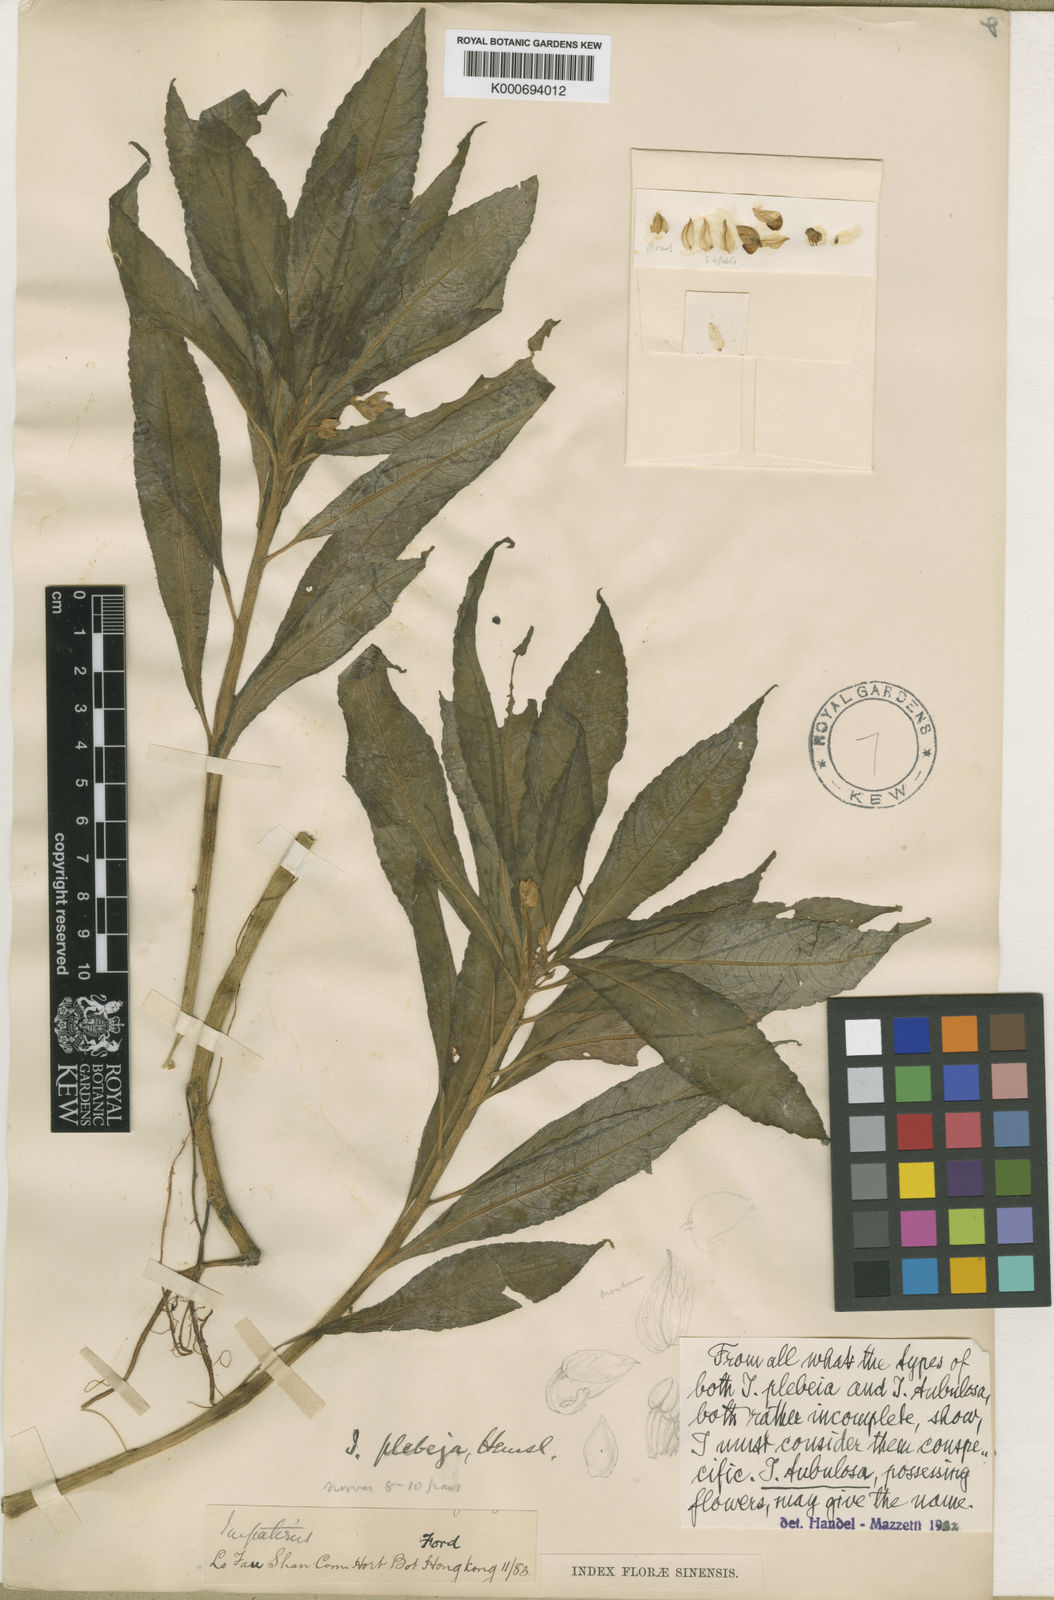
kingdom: Plantae
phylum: Tracheophyta
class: Magnoliopsida
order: Ericales
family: Balsaminaceae
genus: Impatiens
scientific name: Impatiens tubulosa
